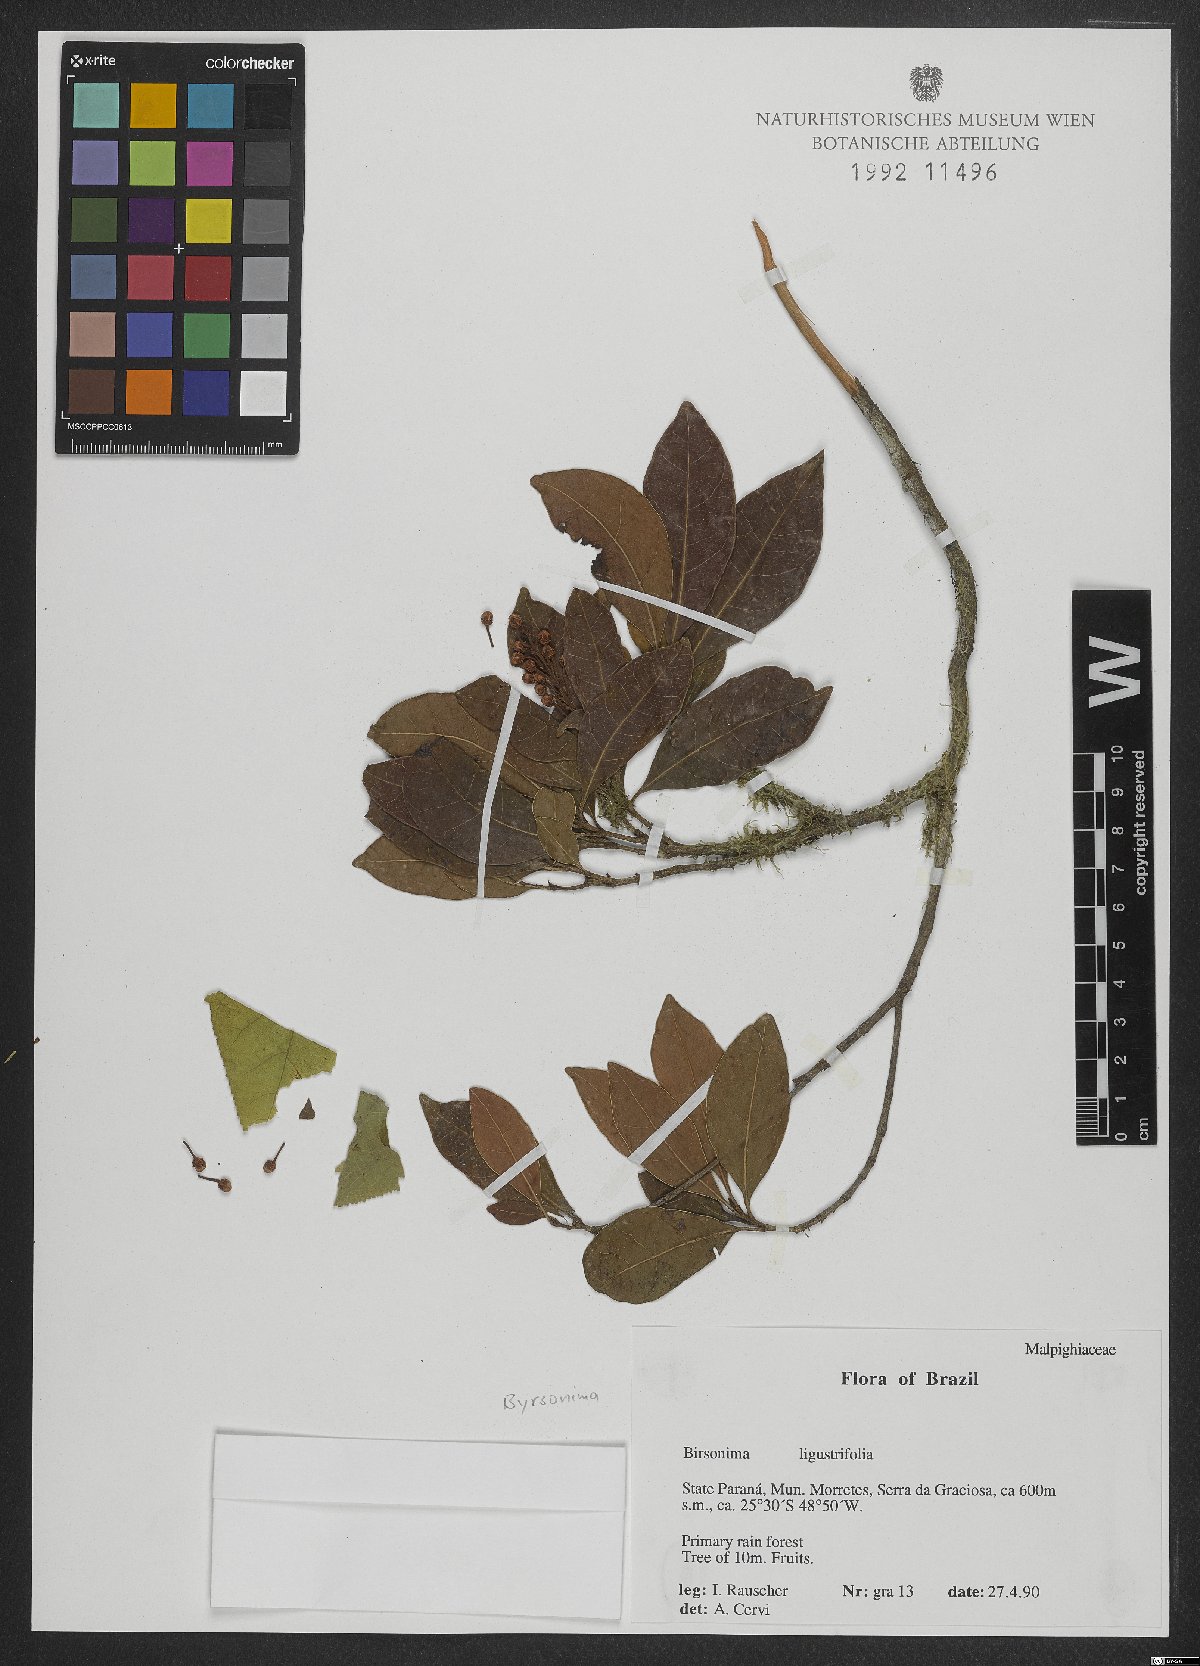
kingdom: Plantae
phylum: Tracheophyta
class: Magnoliopsida
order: Malpighiales
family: Malpighiaceae
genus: Byrsonima
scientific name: Byrsonima ligustrifolia
